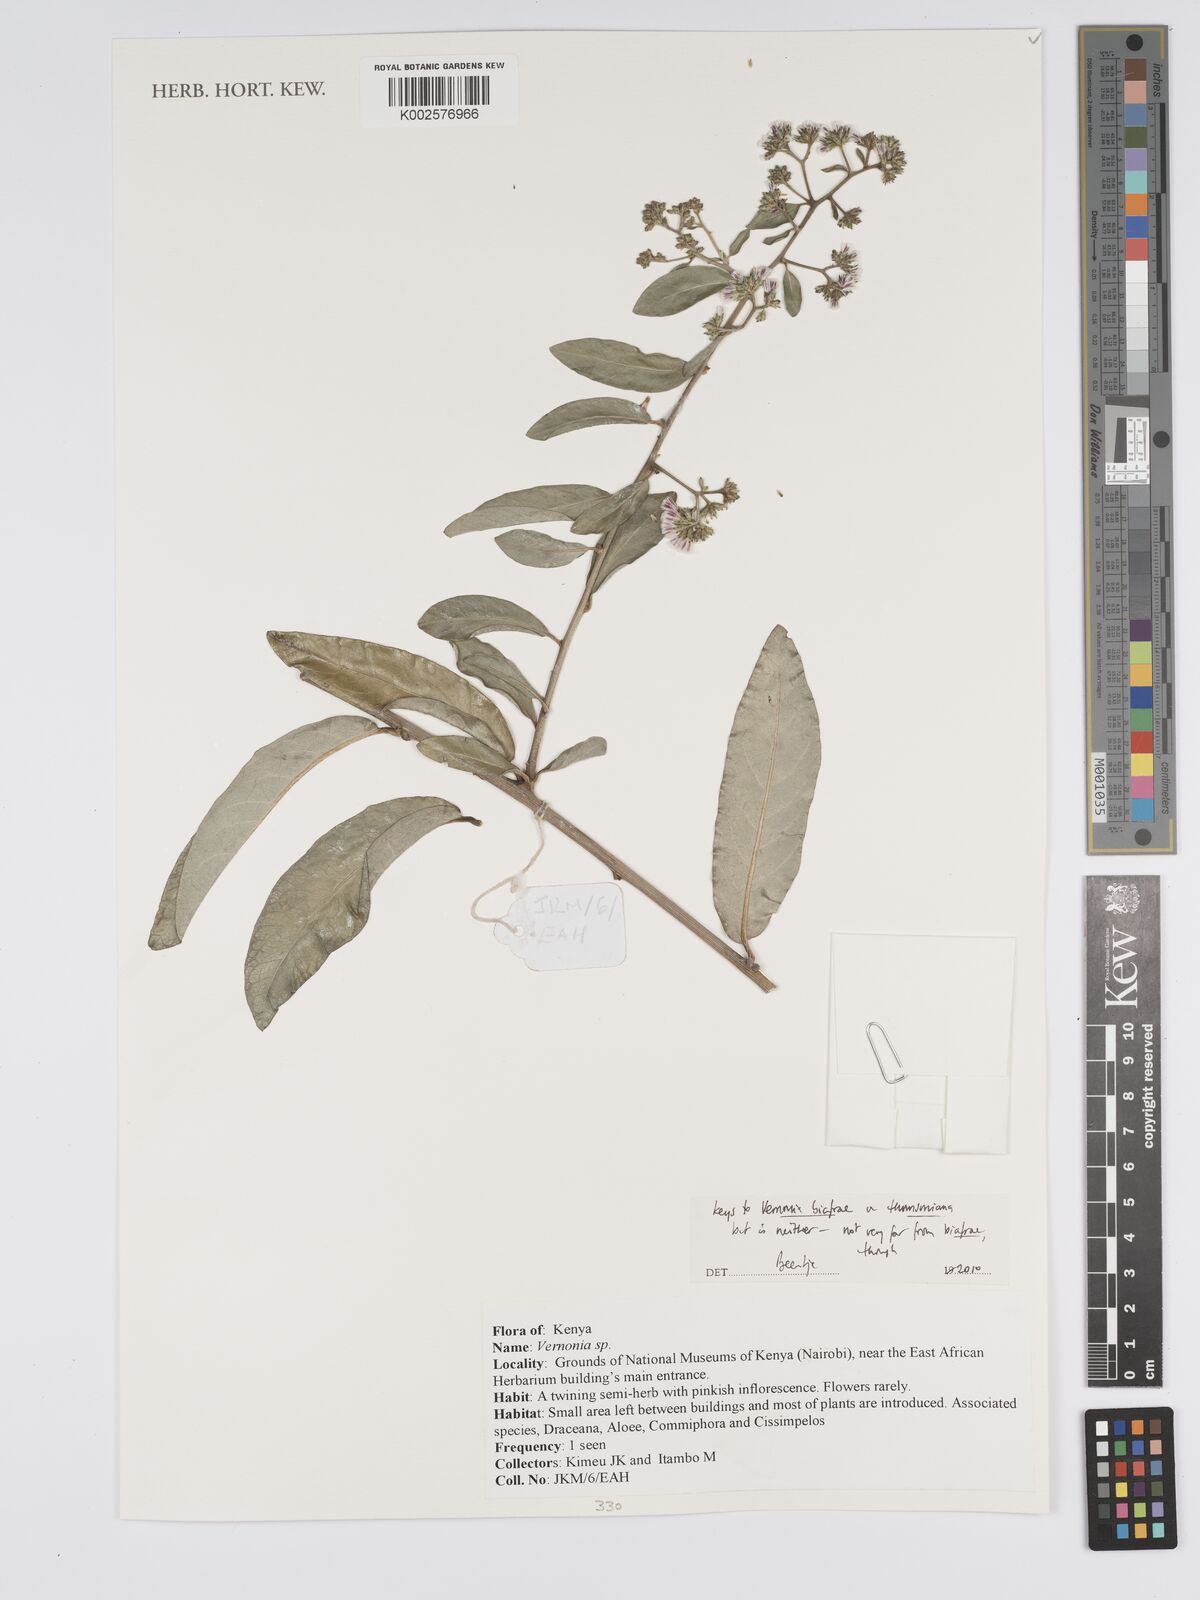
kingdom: Plantae
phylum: Tracheophyta
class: Magnoliopsida
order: Asterales
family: Asteraceae
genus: Distephanus
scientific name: Distephanus biafrae
